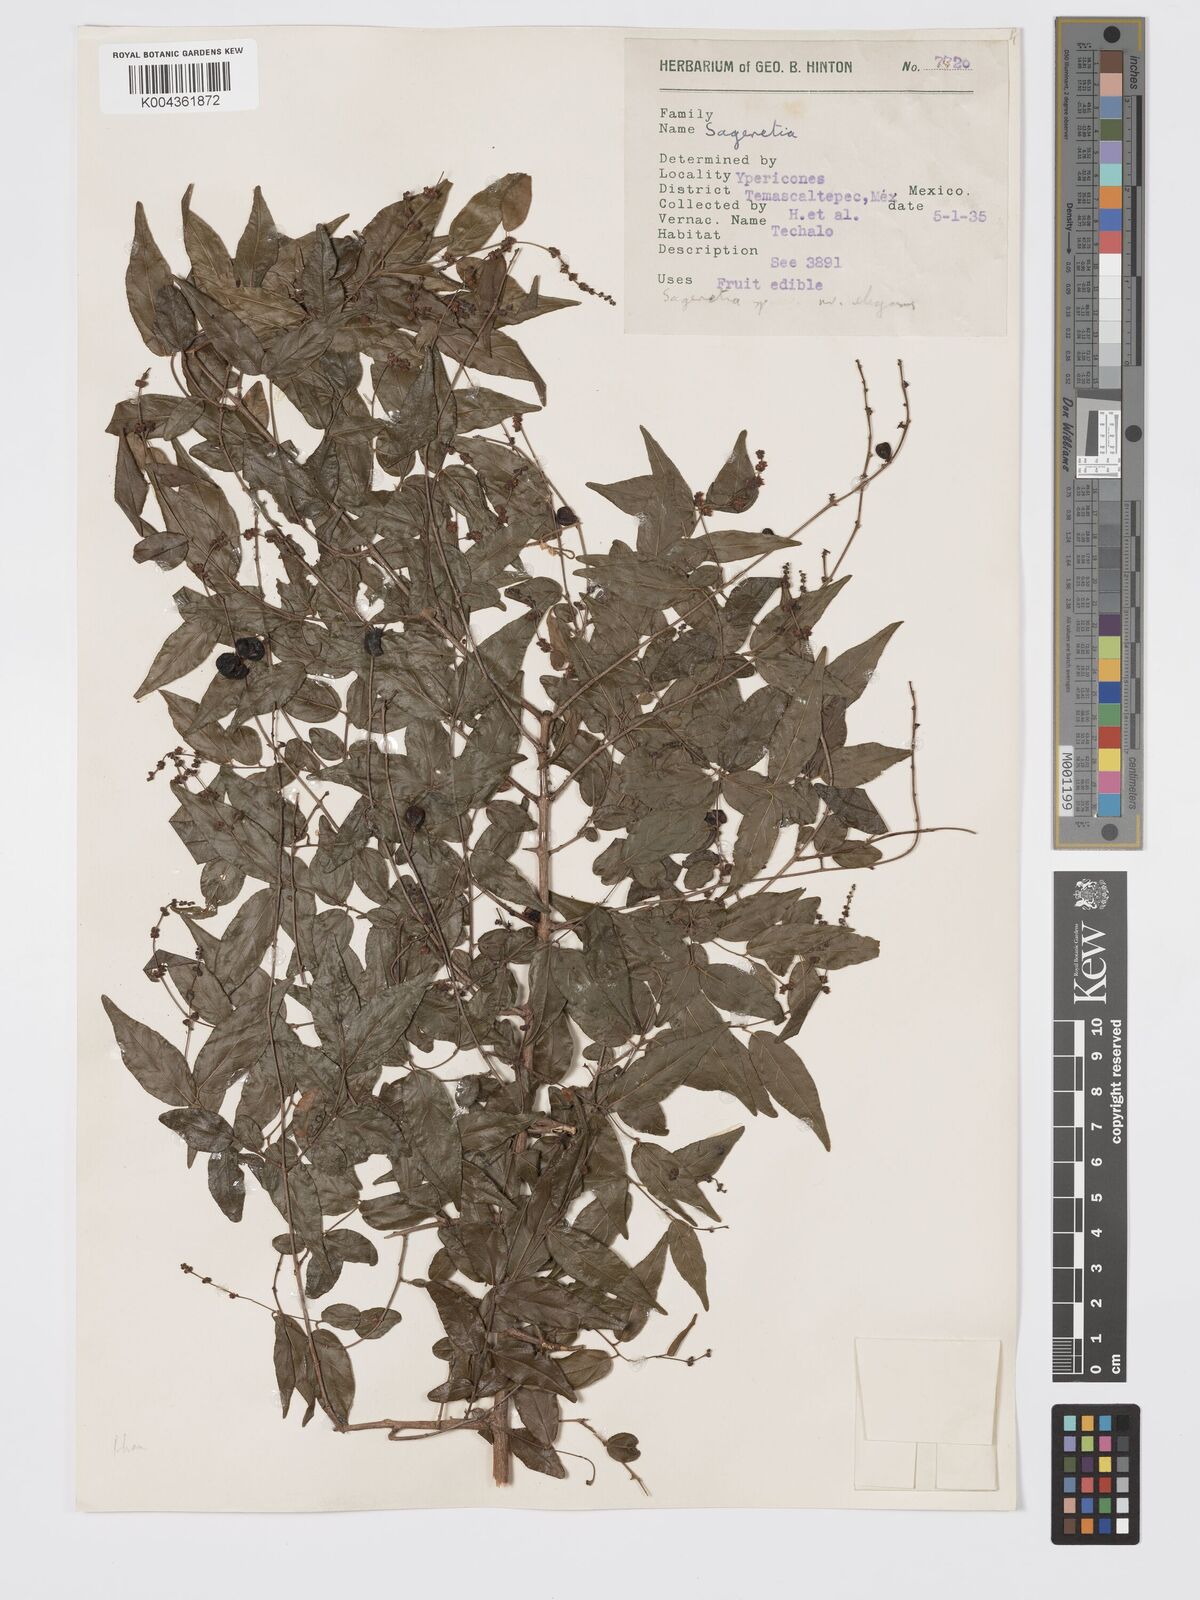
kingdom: Plantae
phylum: Tracheophyta
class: Magnoliopsida
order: Rosales
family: Rhamnaceae
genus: Sageretia
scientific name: Sageretia wrightii
